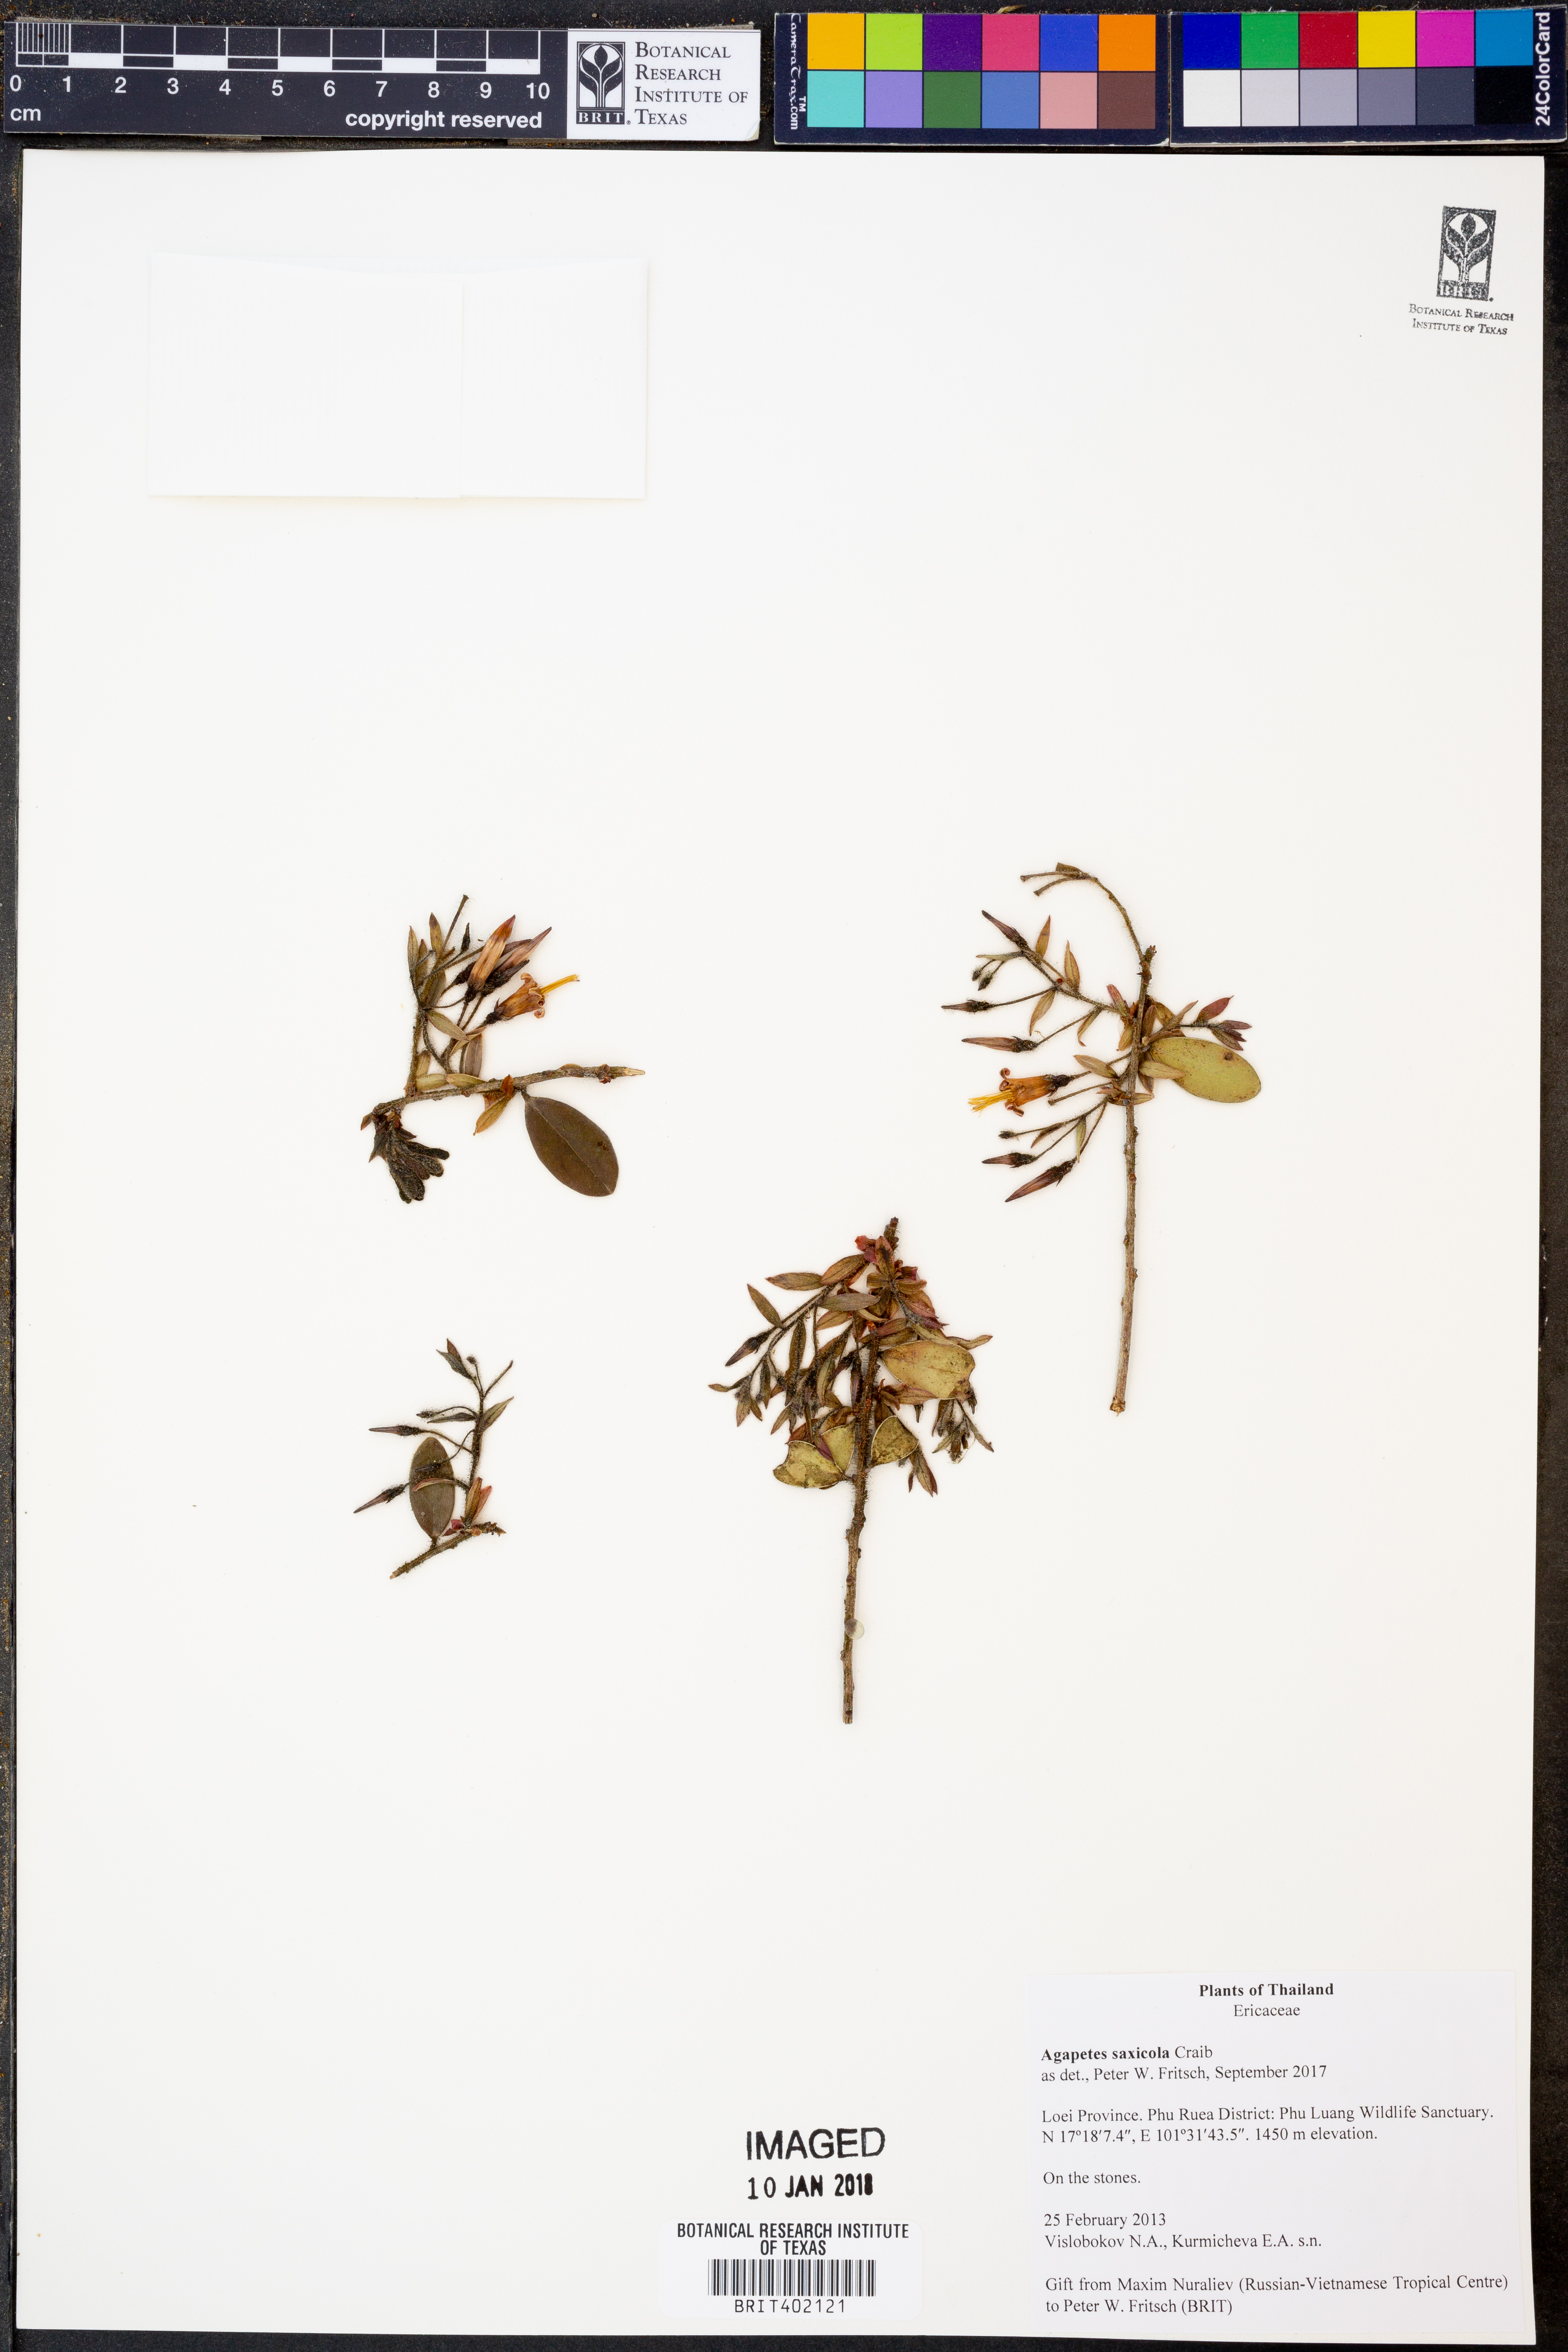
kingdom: Plantae
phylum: Tracheophyta
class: Magnoliopsida
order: Ericales
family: Ericaceae
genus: Agapetes
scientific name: Agapetes saxicola
